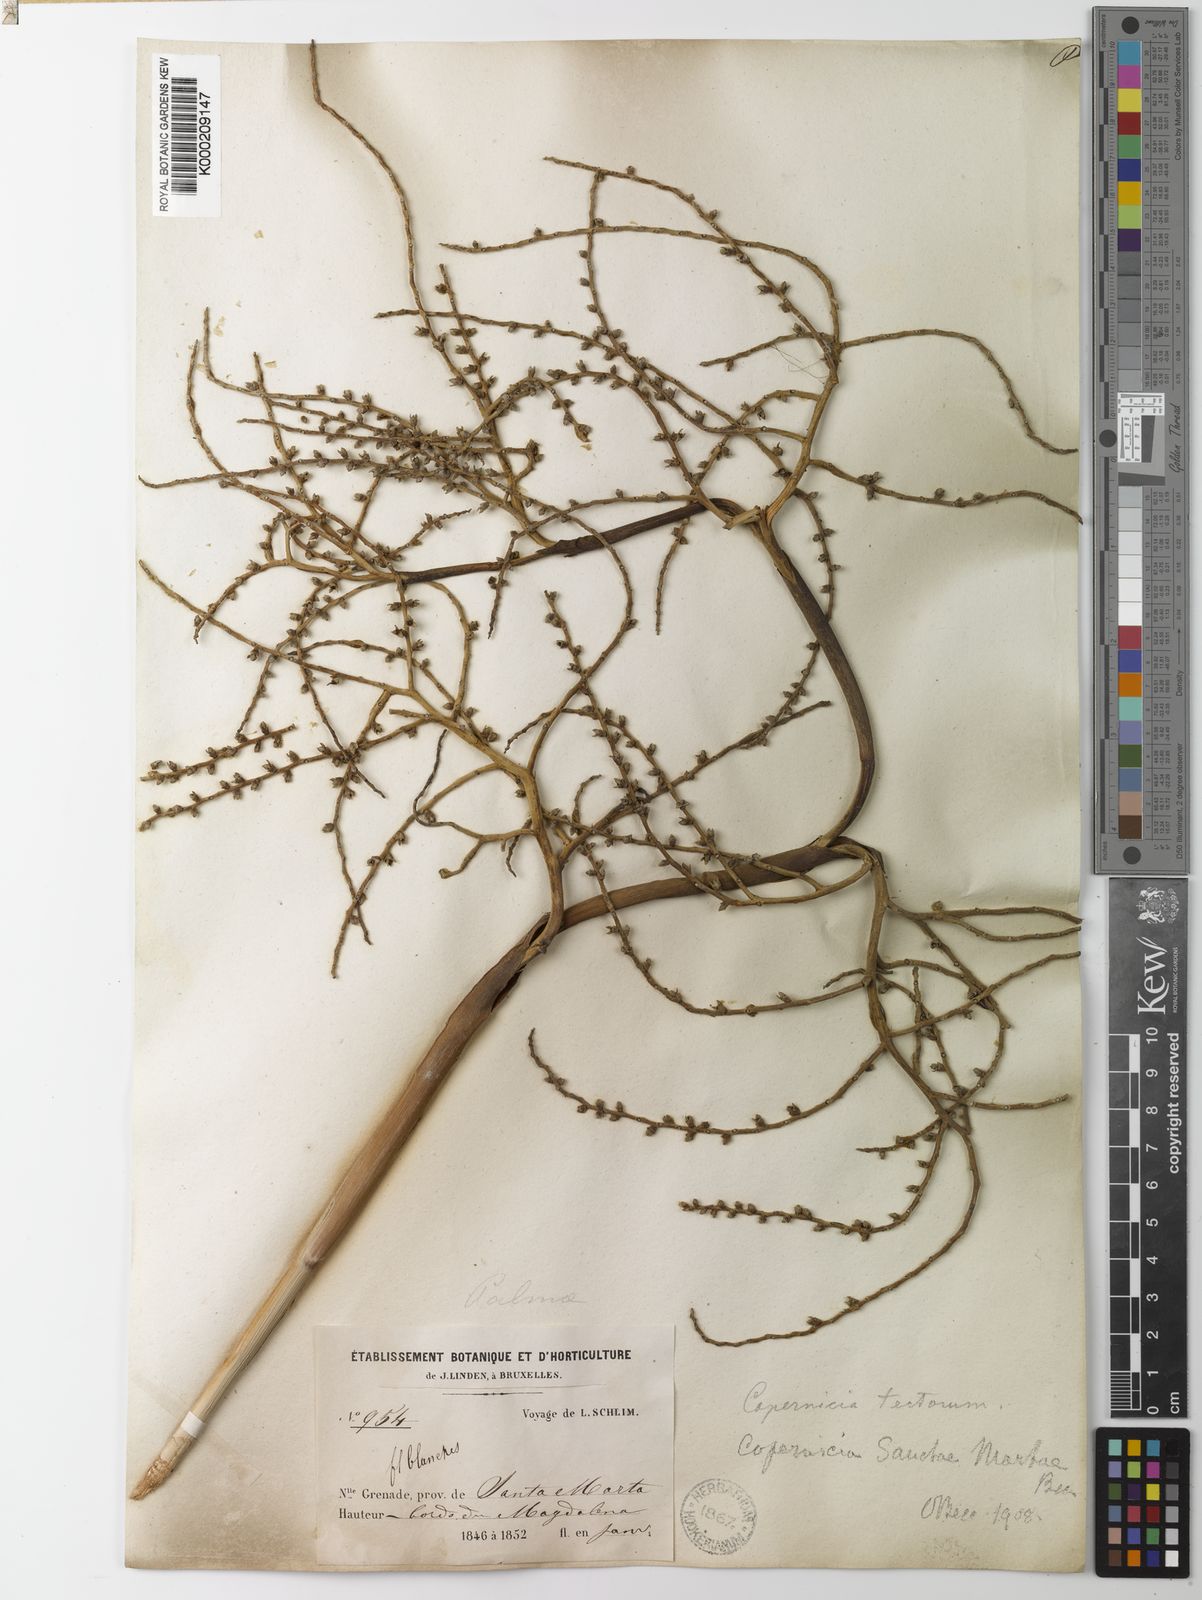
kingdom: Plantae
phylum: Tracheophyta
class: Liliopsida
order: Arecales
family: Arecaceae
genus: Copernicia
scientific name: Copernicia tectorum
